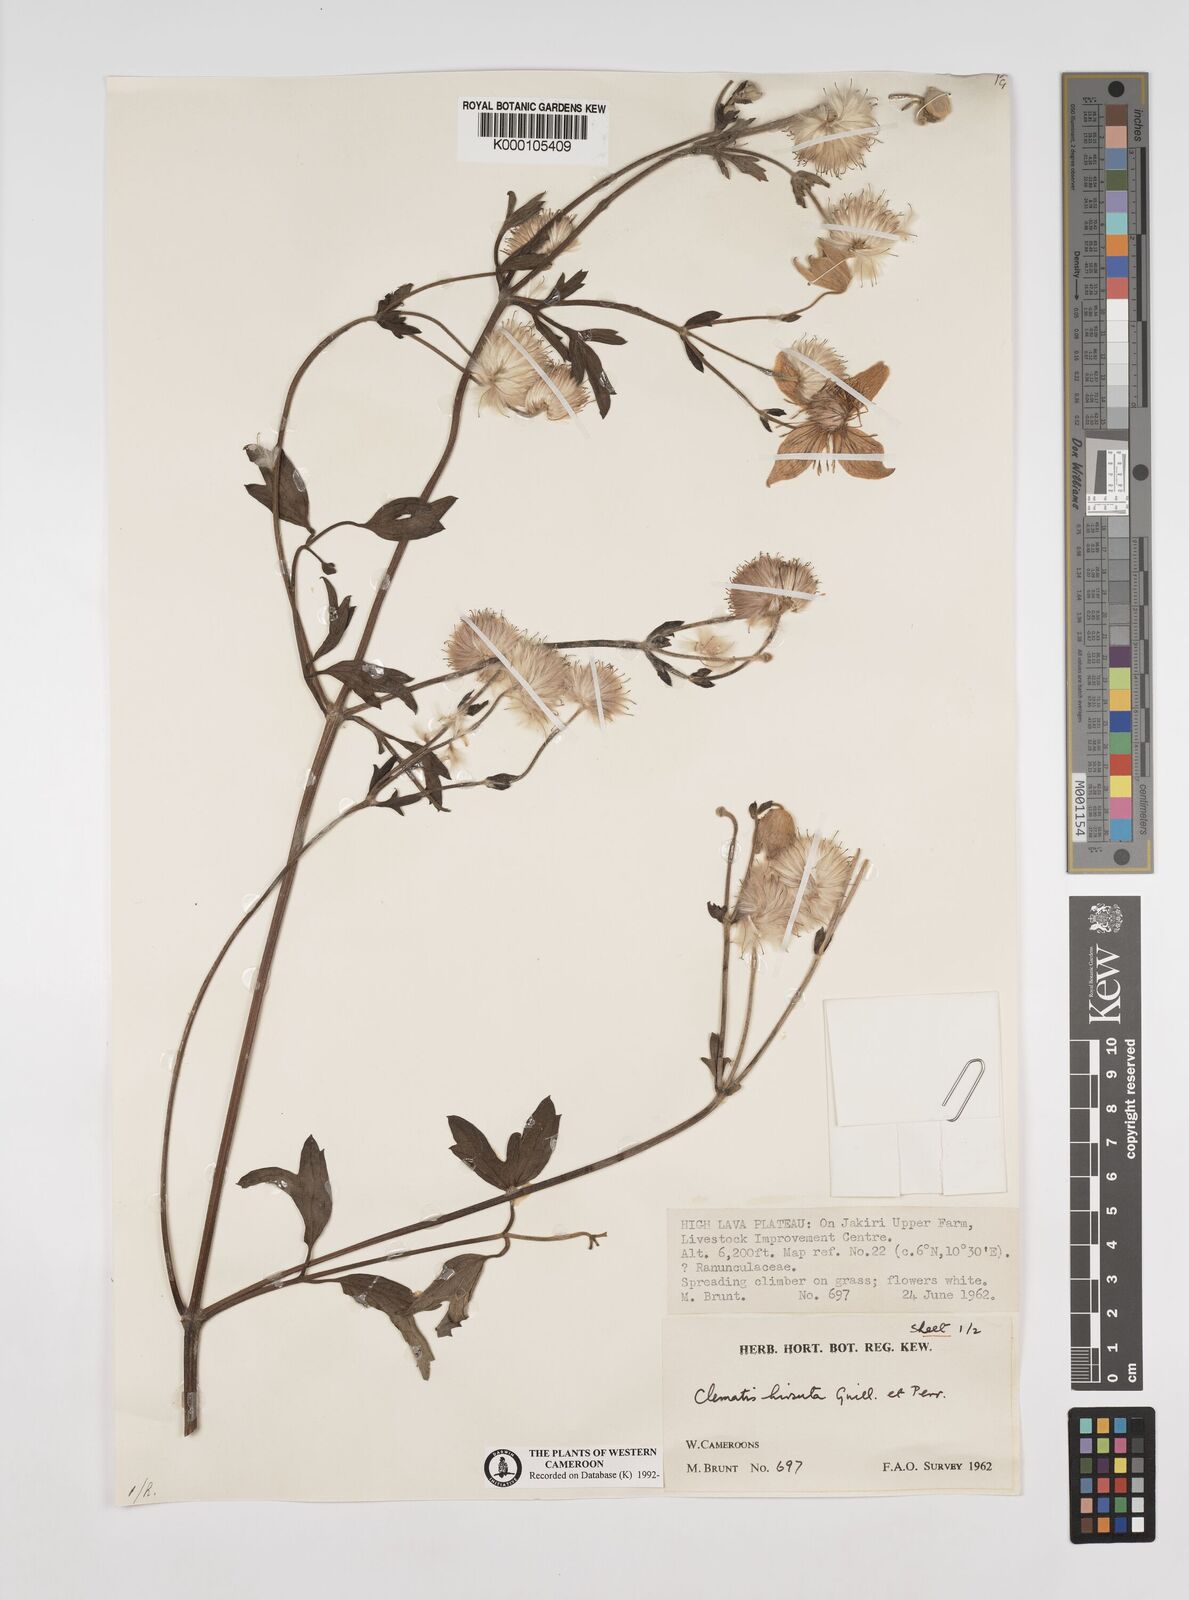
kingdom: Plantae
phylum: Tracheophyta
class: Magnoliopsida
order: Ranunculales
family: Ranunculaceae
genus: Clematis
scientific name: Clematis hirsuta
